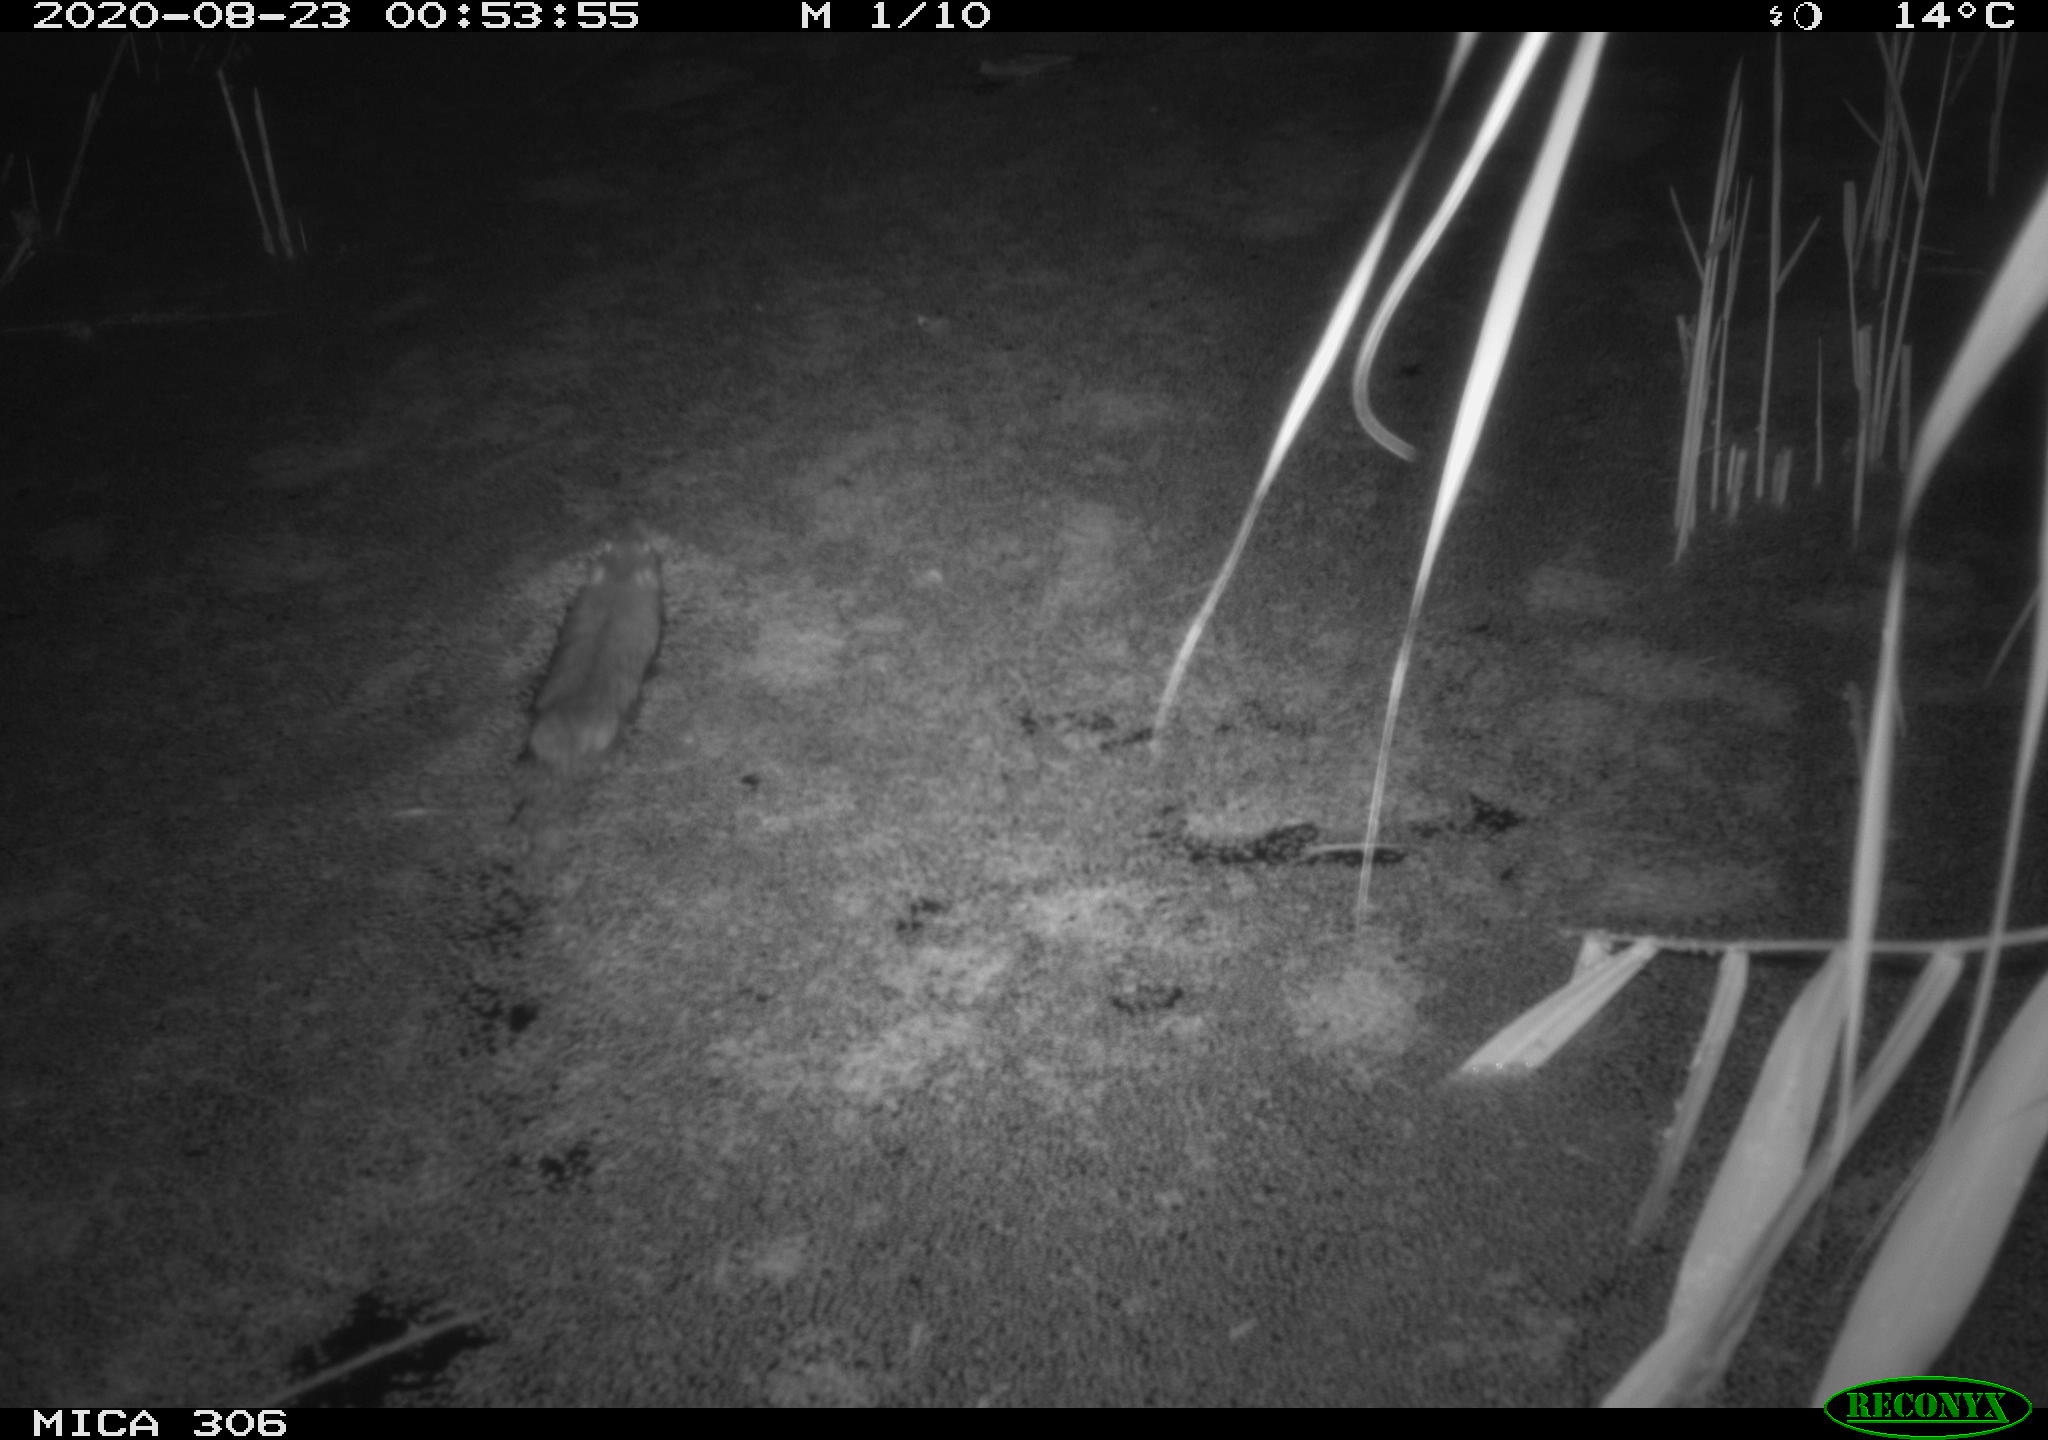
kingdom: Animalia
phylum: Chordata
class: Mammalia
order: Rodentia
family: Muridae
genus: Rattus
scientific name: Rattus norvegicus
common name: Brown rat
